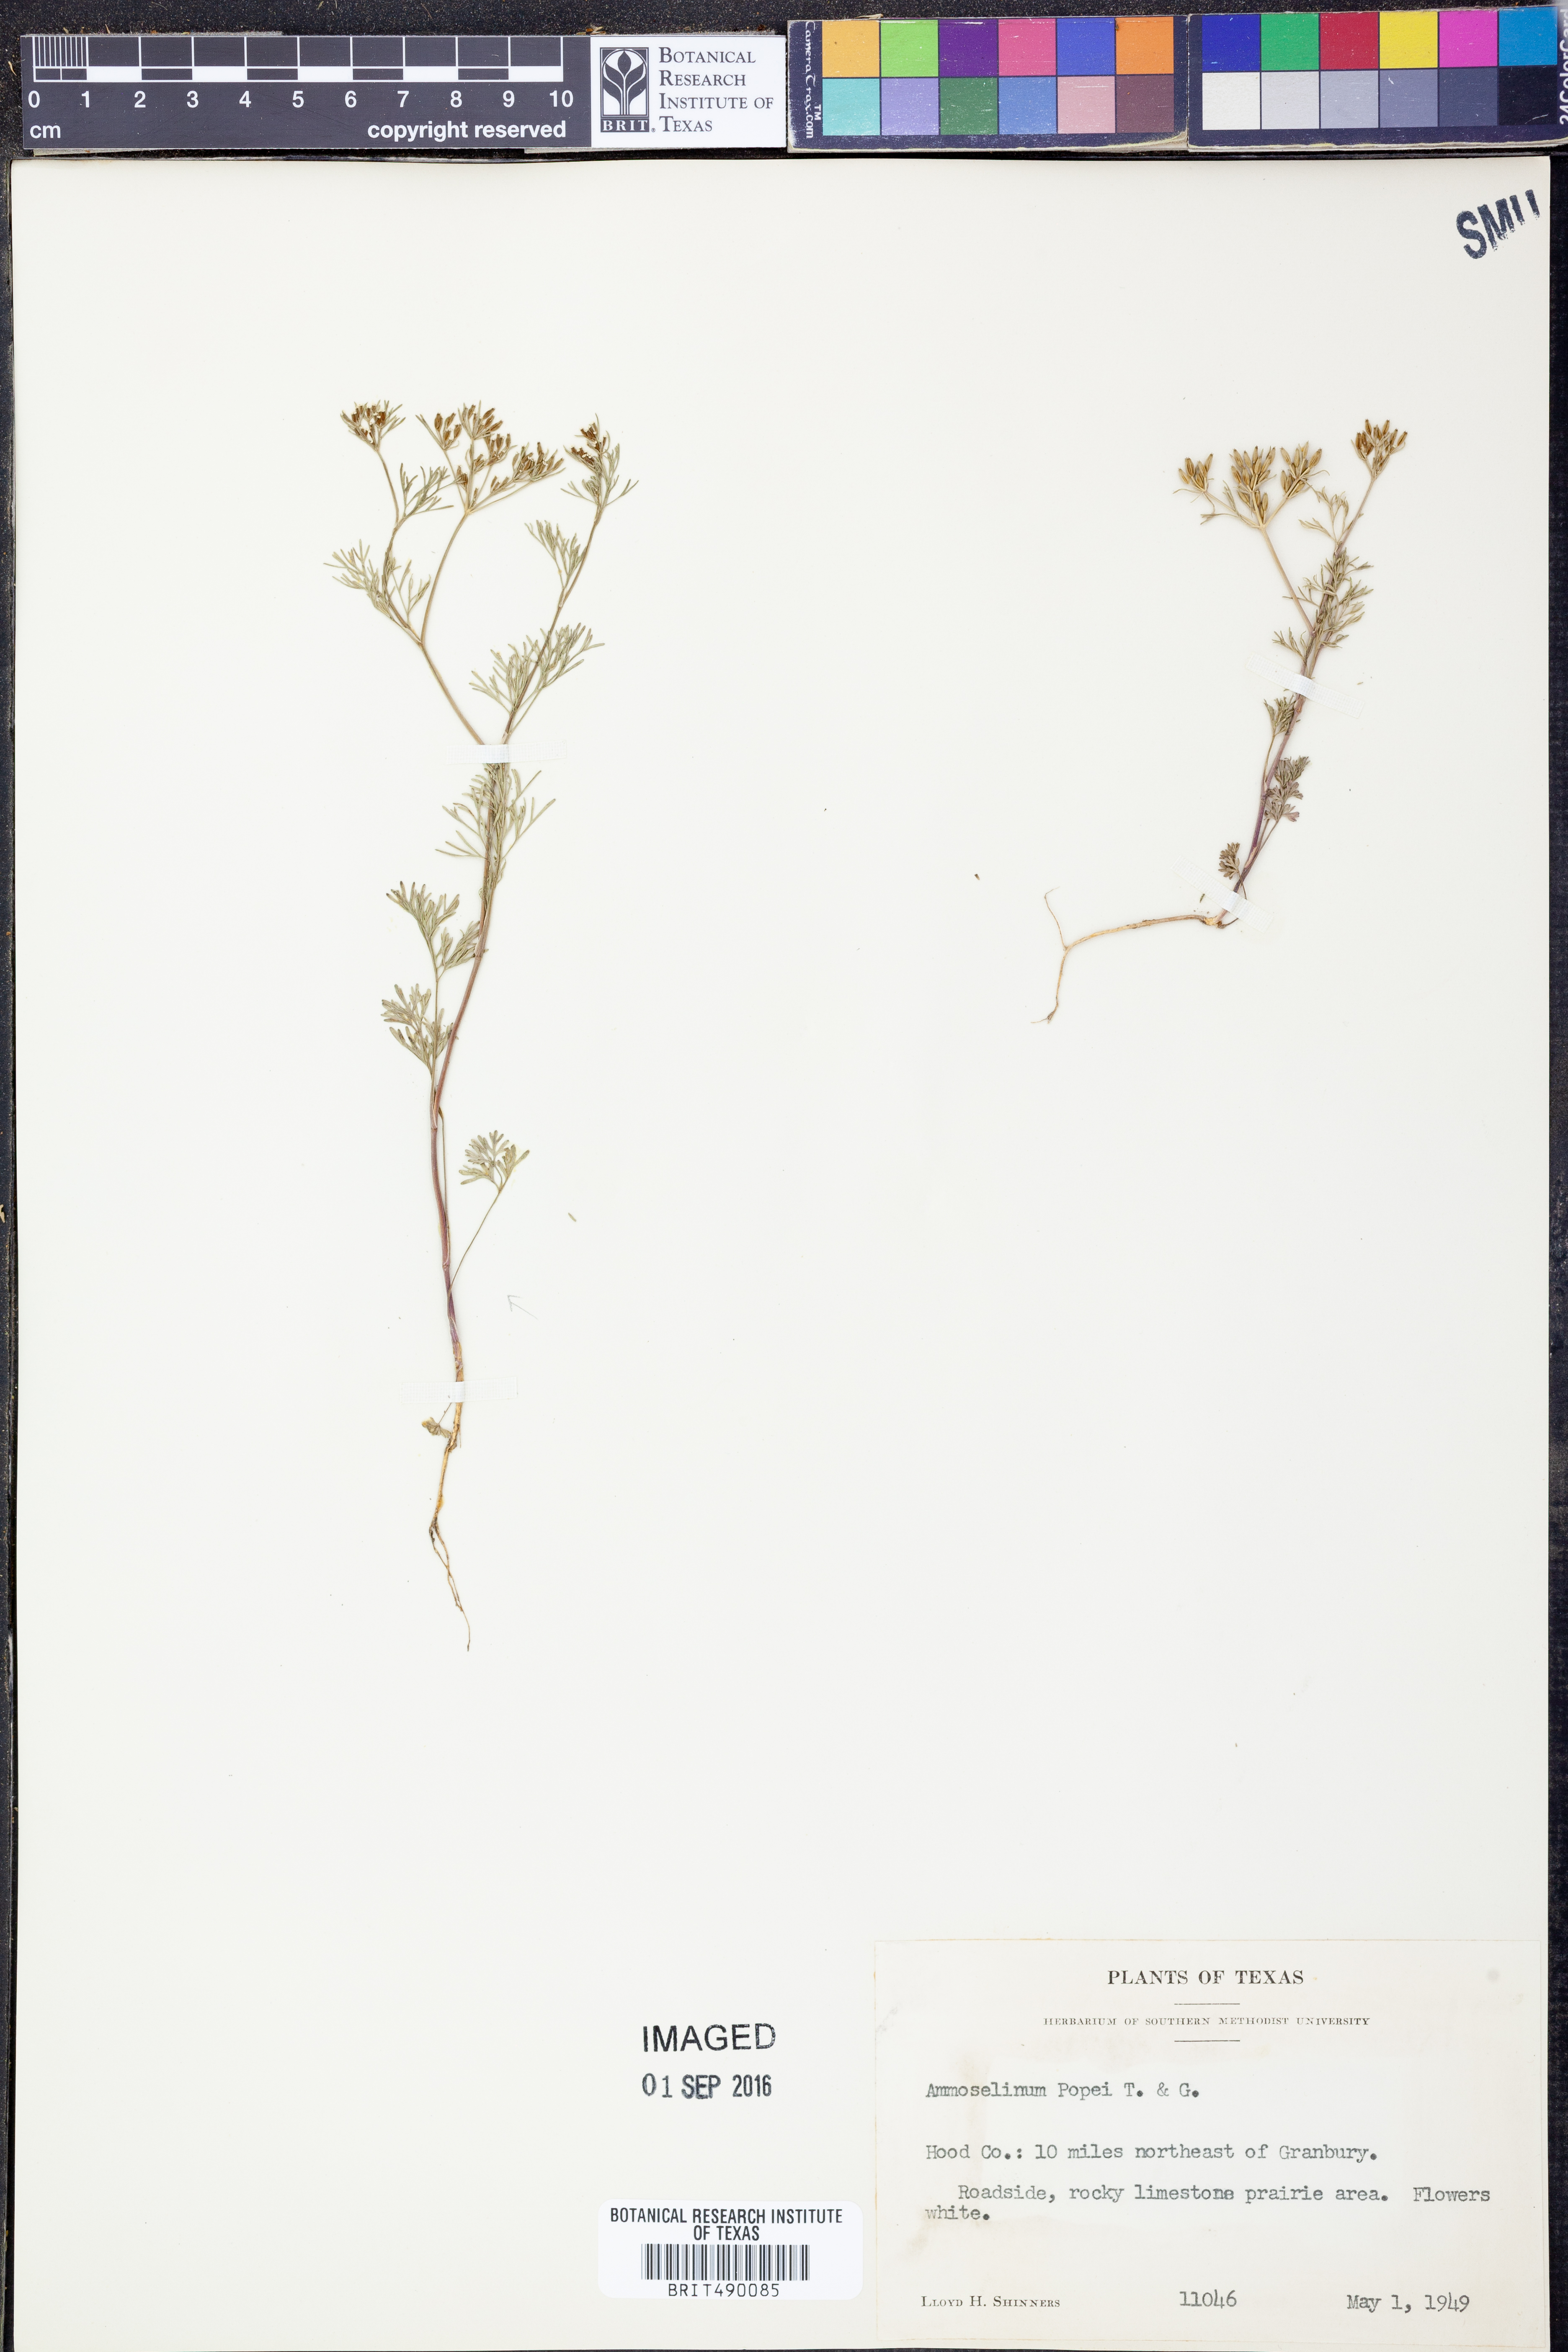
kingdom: Plantae
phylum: Tracheophyta
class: Magnoliopsida
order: Apiales
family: Apiaceae
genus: Ammoselinum
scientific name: Ammoselinum popei
